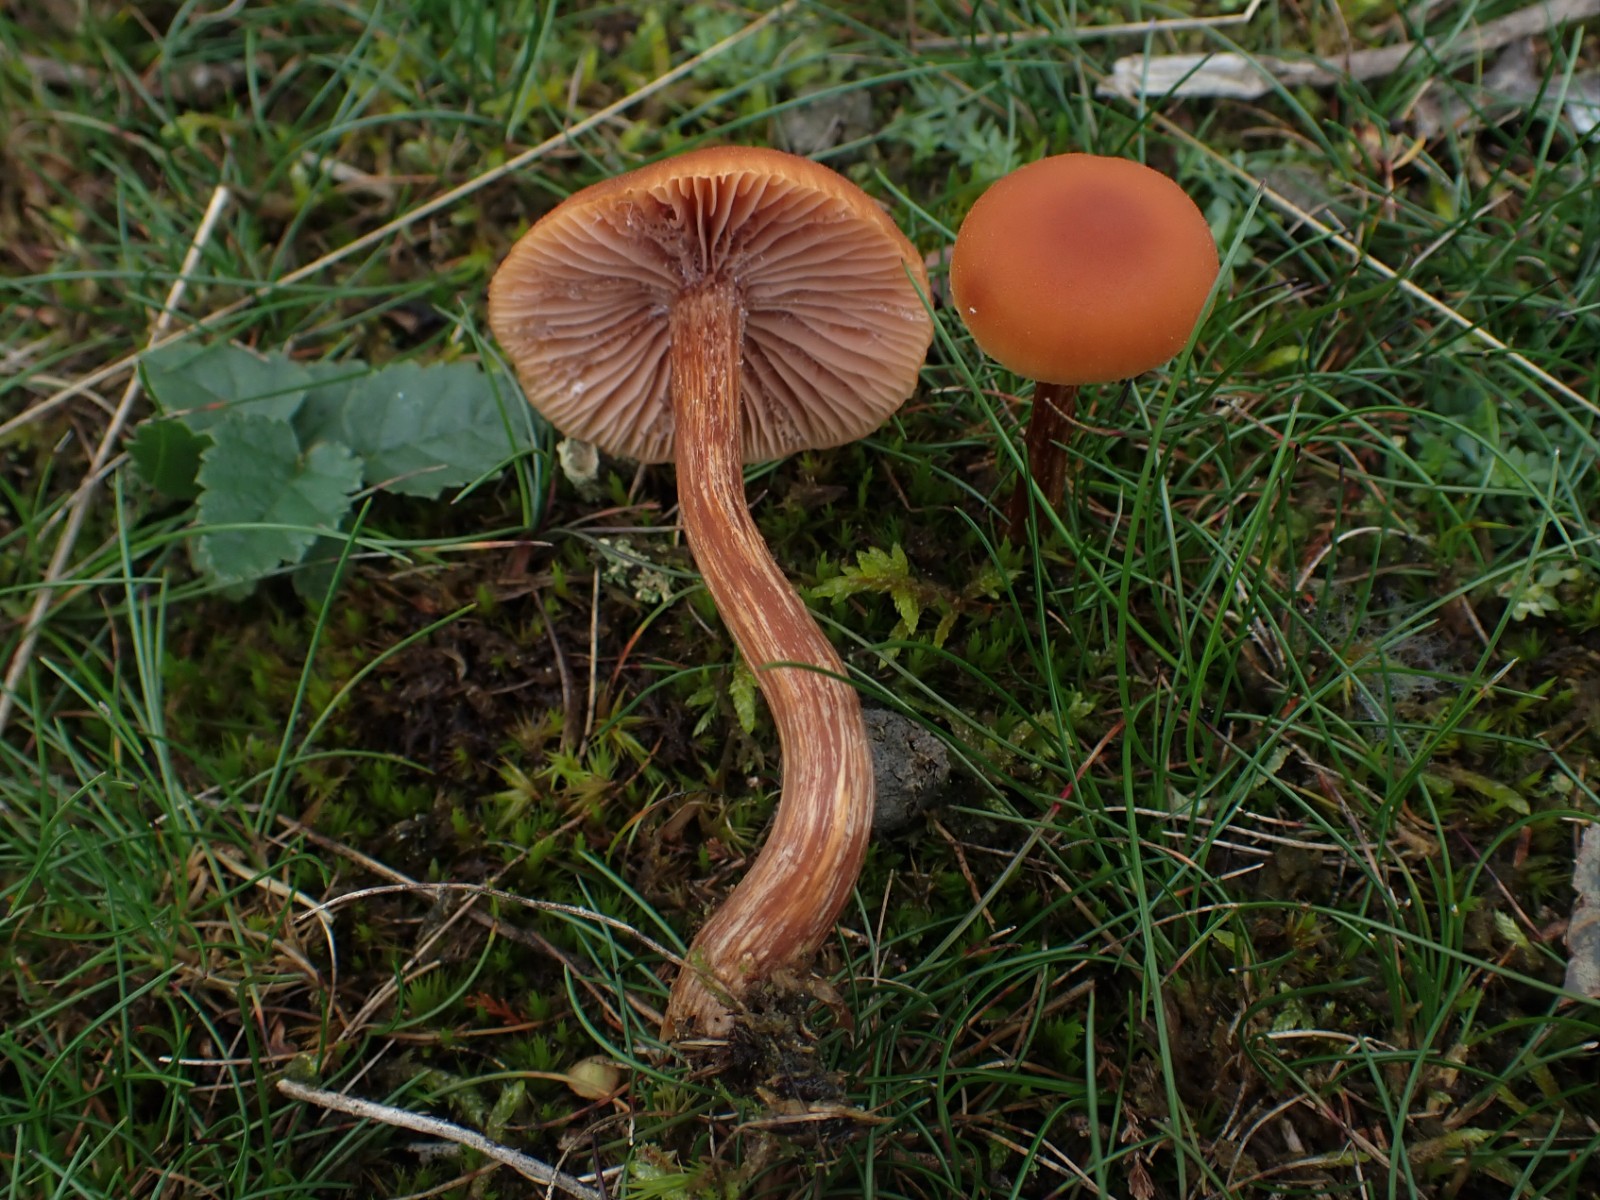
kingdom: Fungi
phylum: Basidiomycota
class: Agaricomycetes
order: Agaricales
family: Hydnangiaceae
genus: Laccaria
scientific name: Laccaria proxima
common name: stor ametysthat
